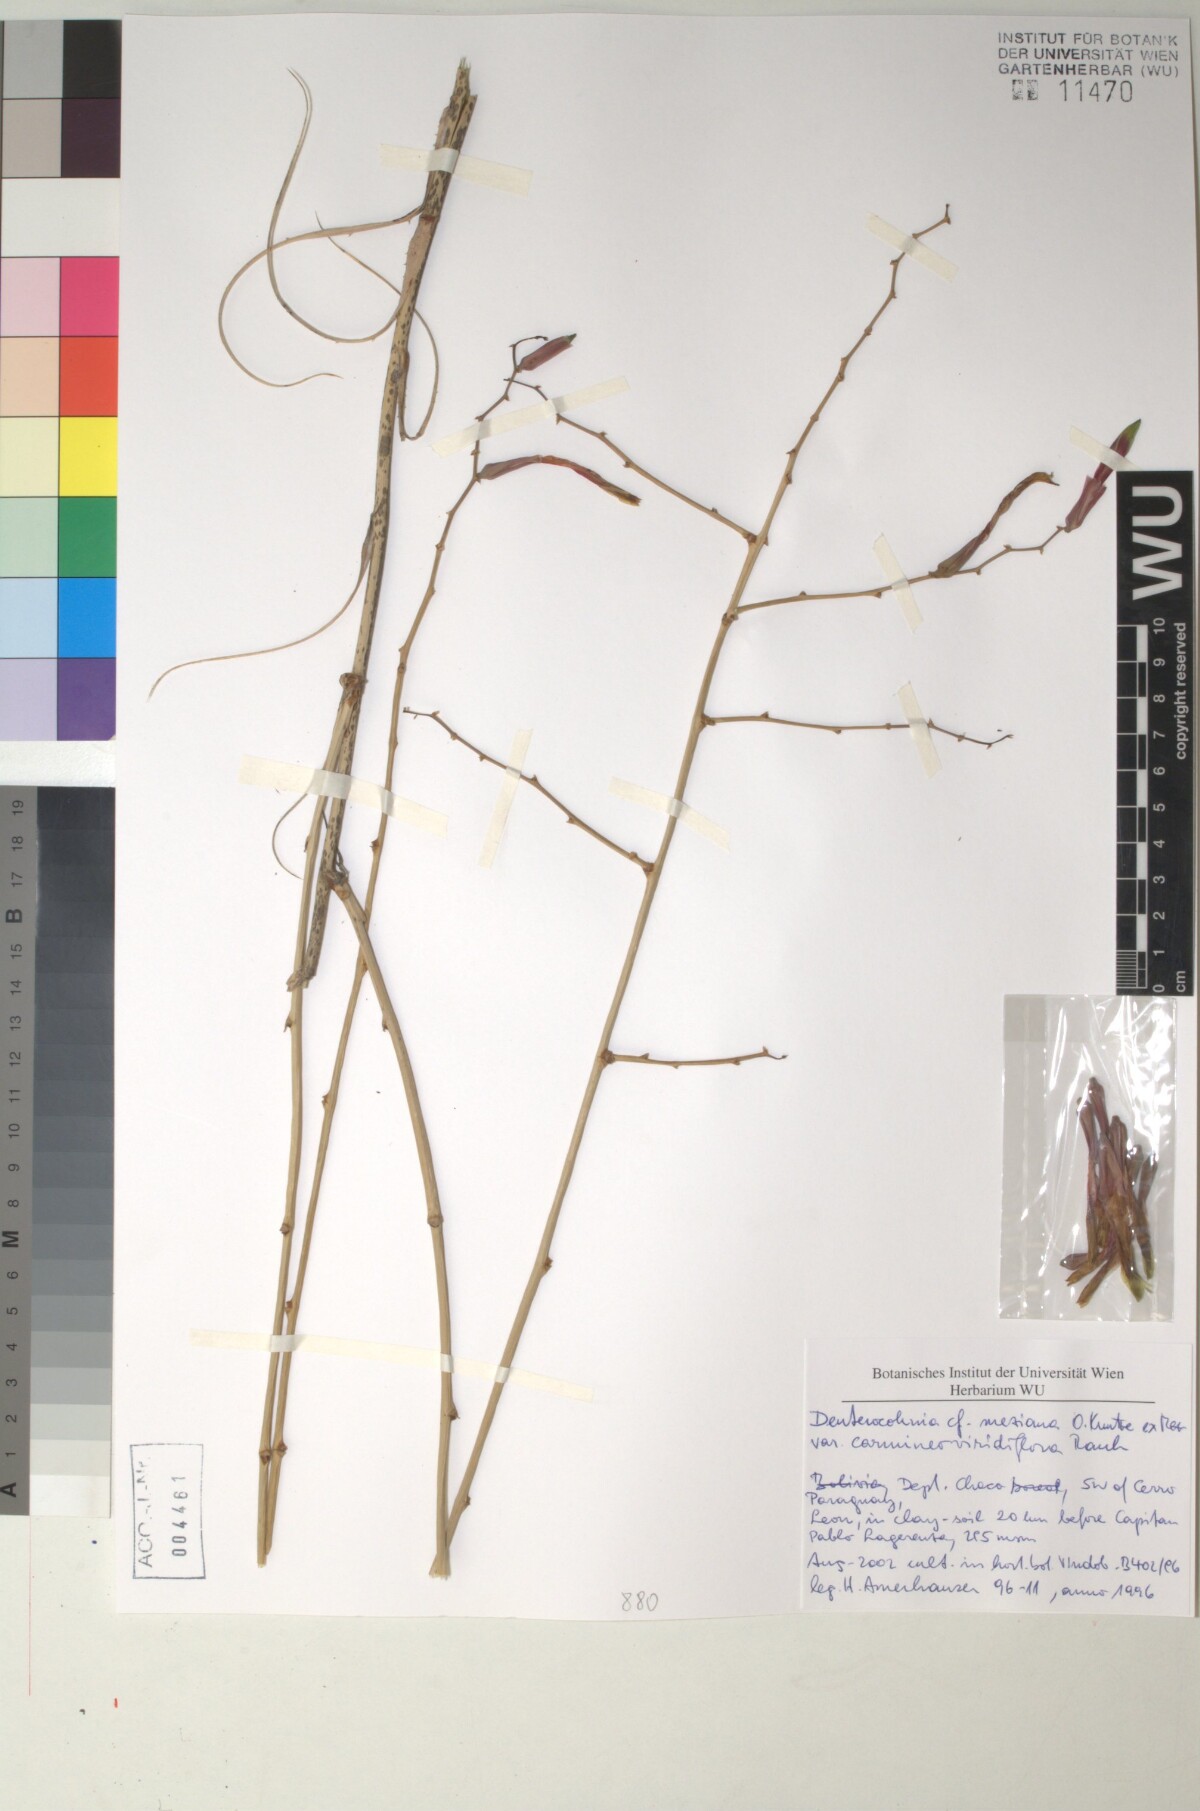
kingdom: Plantae
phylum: Tracheophyta
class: Liliopsida
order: Poales
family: Bromeliaceae
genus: Deuterocohnia
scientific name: Deuterocohnia meziana
